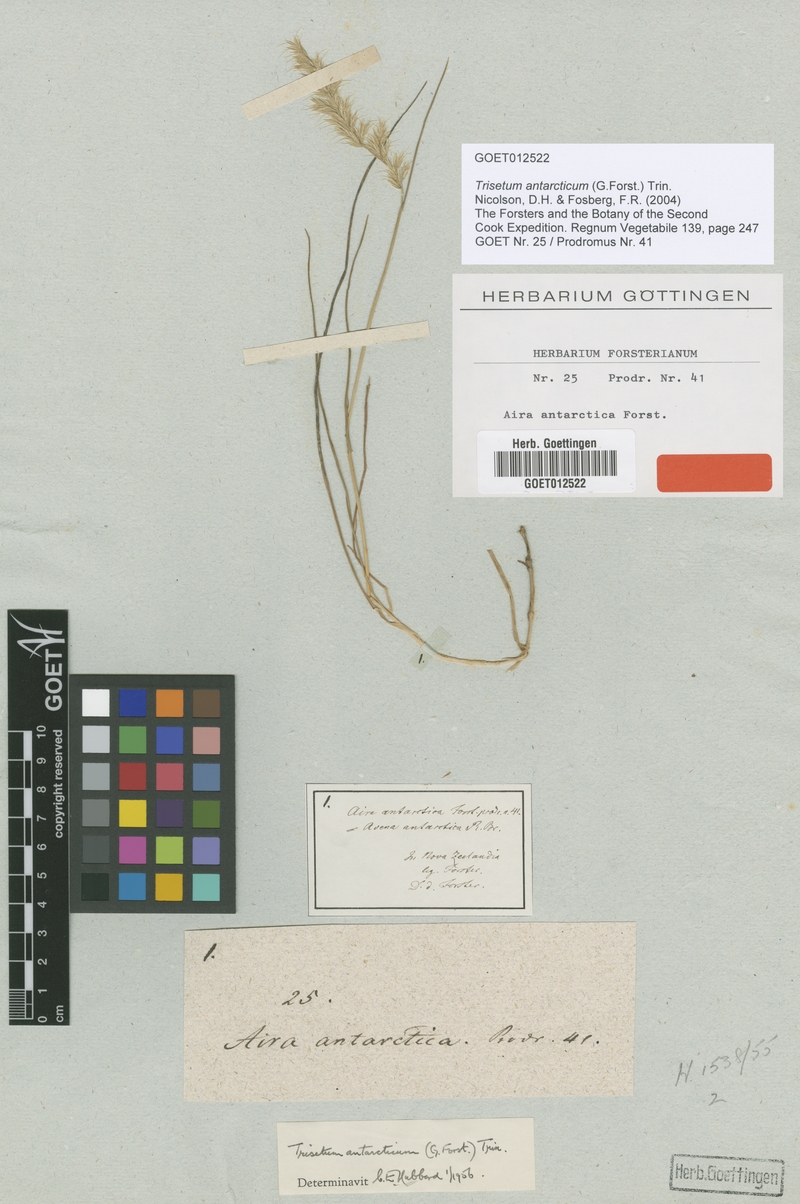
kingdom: Plantae
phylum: Tracheophyta
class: Liliopsida
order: Poales
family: Poaceae
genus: Koeleria
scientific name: Koeleria antarctica
